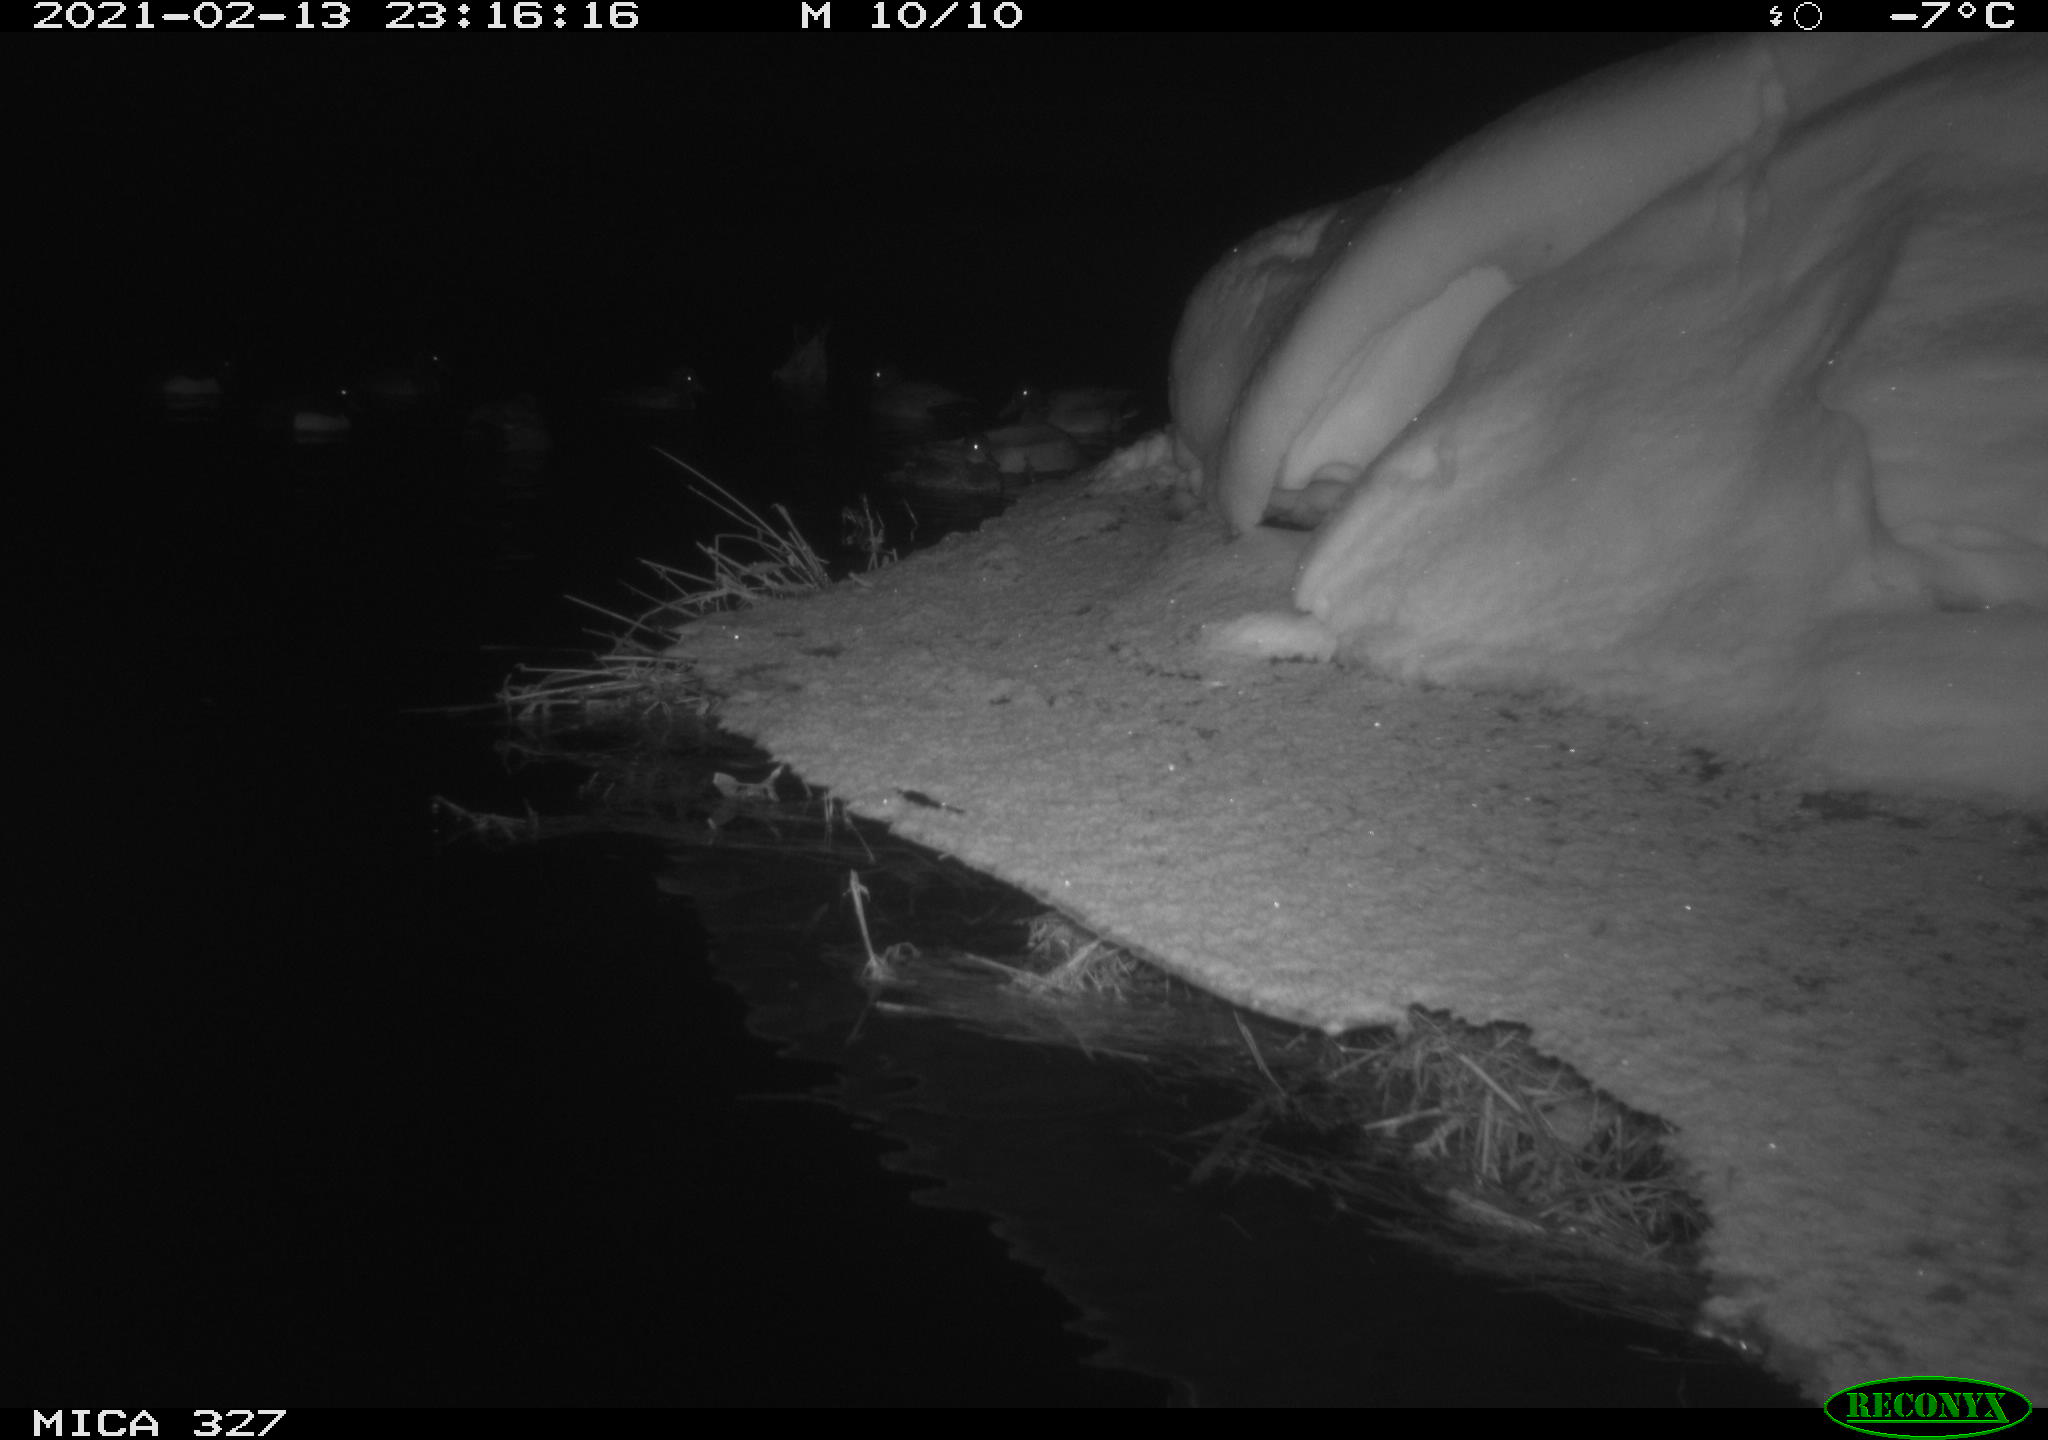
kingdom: Animalia
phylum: Chordata
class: Aves
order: Anseriformes
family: Anatidae
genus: Anas
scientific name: Anas
